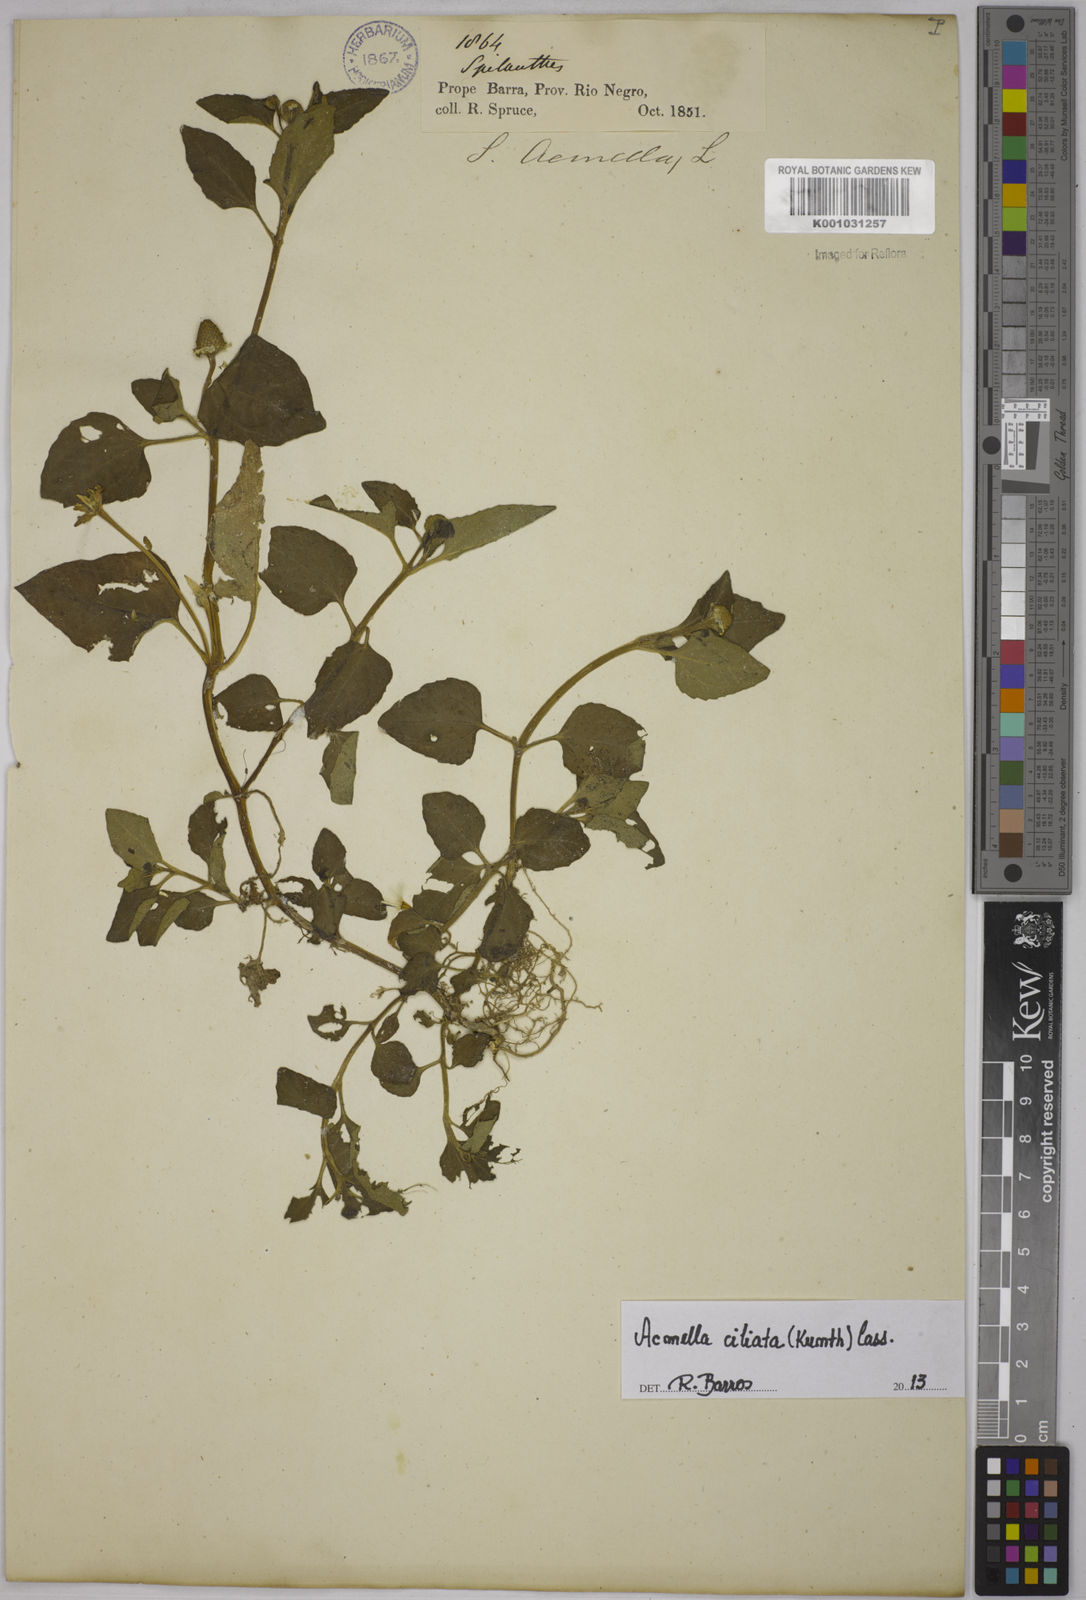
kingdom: Plantae
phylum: Tracheophyta
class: Magnoliopsida
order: Asterales
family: Asteraceae
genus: Acmella
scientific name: Acmella ciliata
